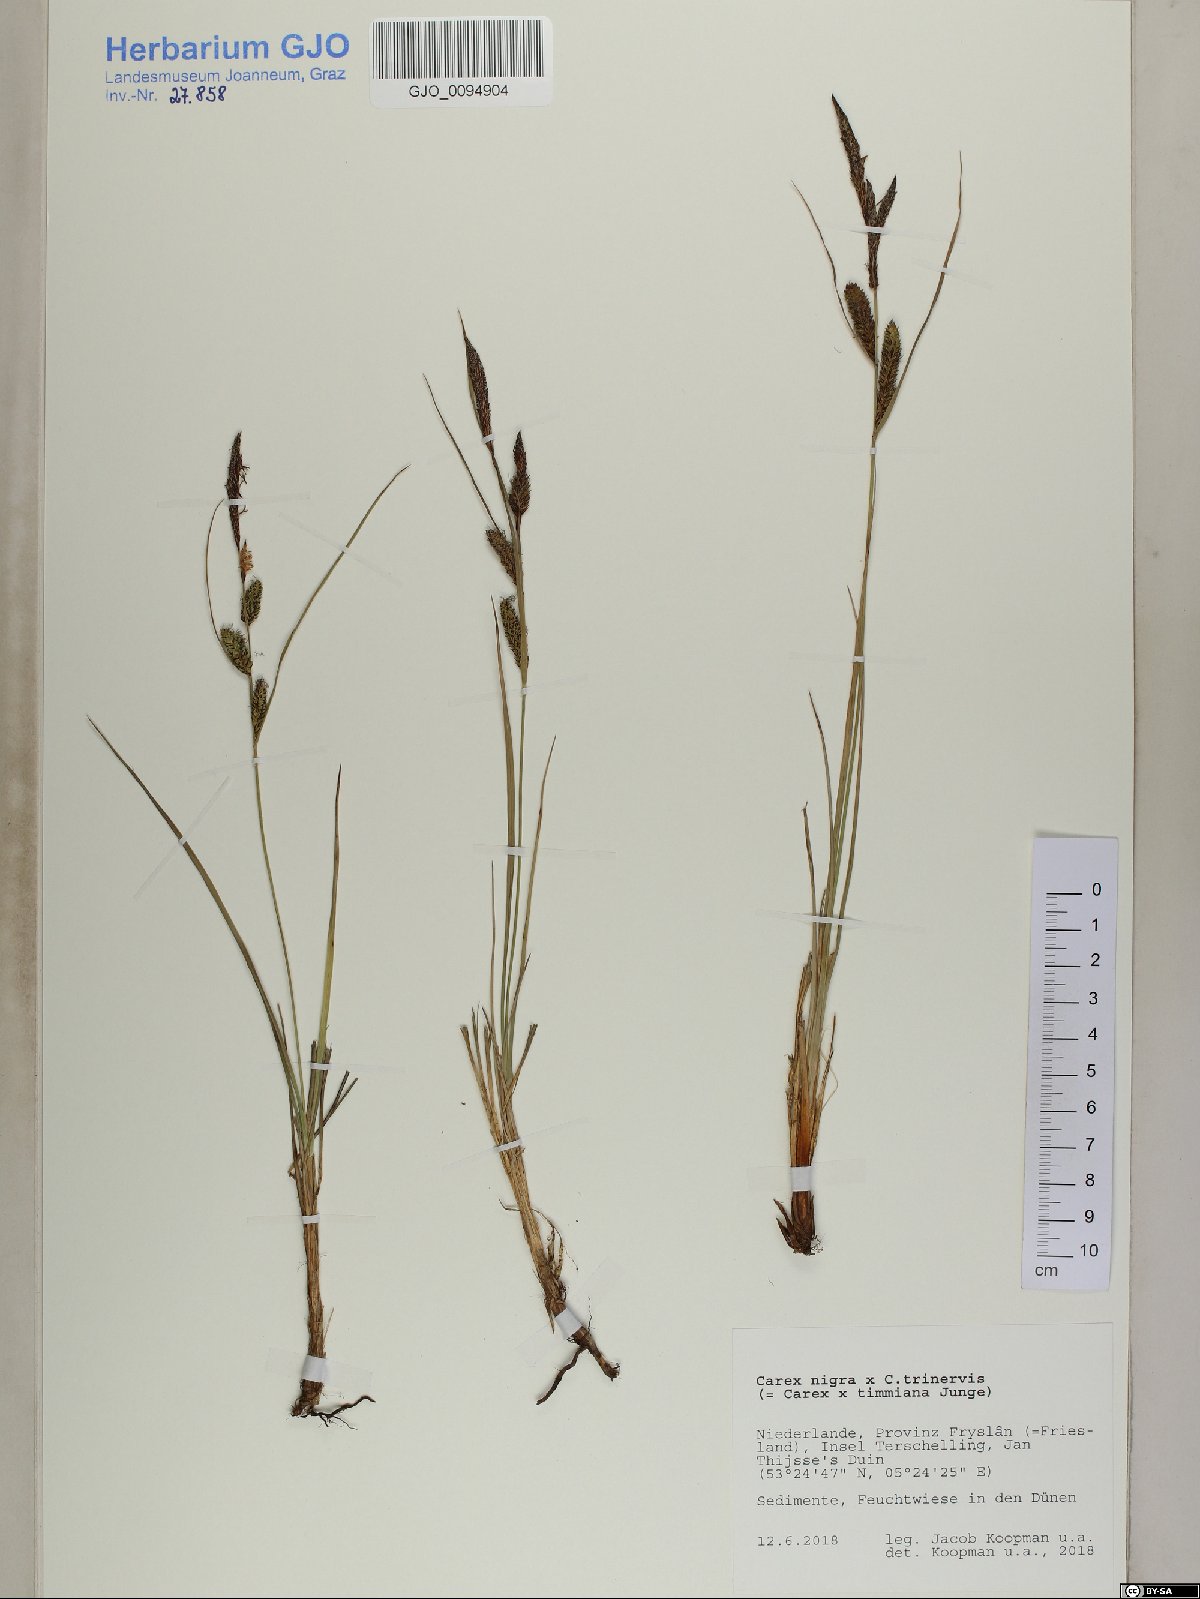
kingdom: Plantae
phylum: Tracheophyta
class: Liliopsida
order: Poales
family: Cyperaceae
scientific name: Cyperaceae
